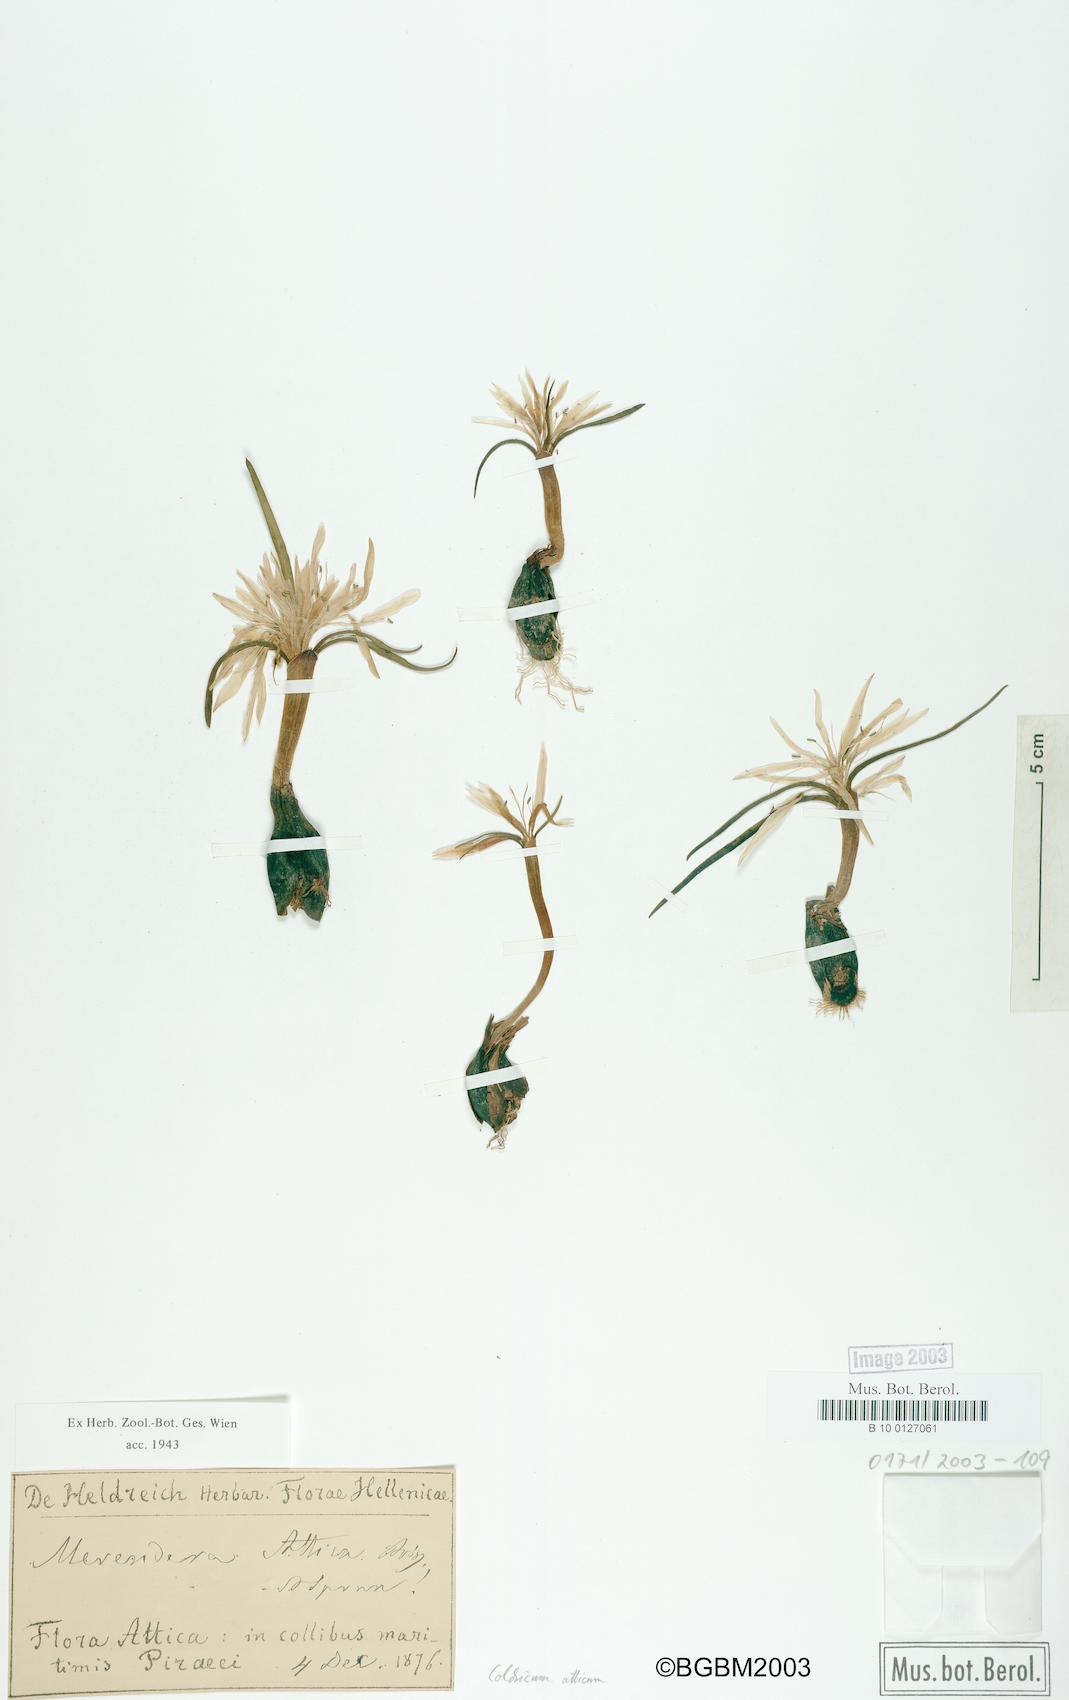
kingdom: Plantae
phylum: Tracheophyta
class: Liliopsida
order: Liliales
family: Colchicaceae
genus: Colchicum
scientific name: Colchicum atticum
